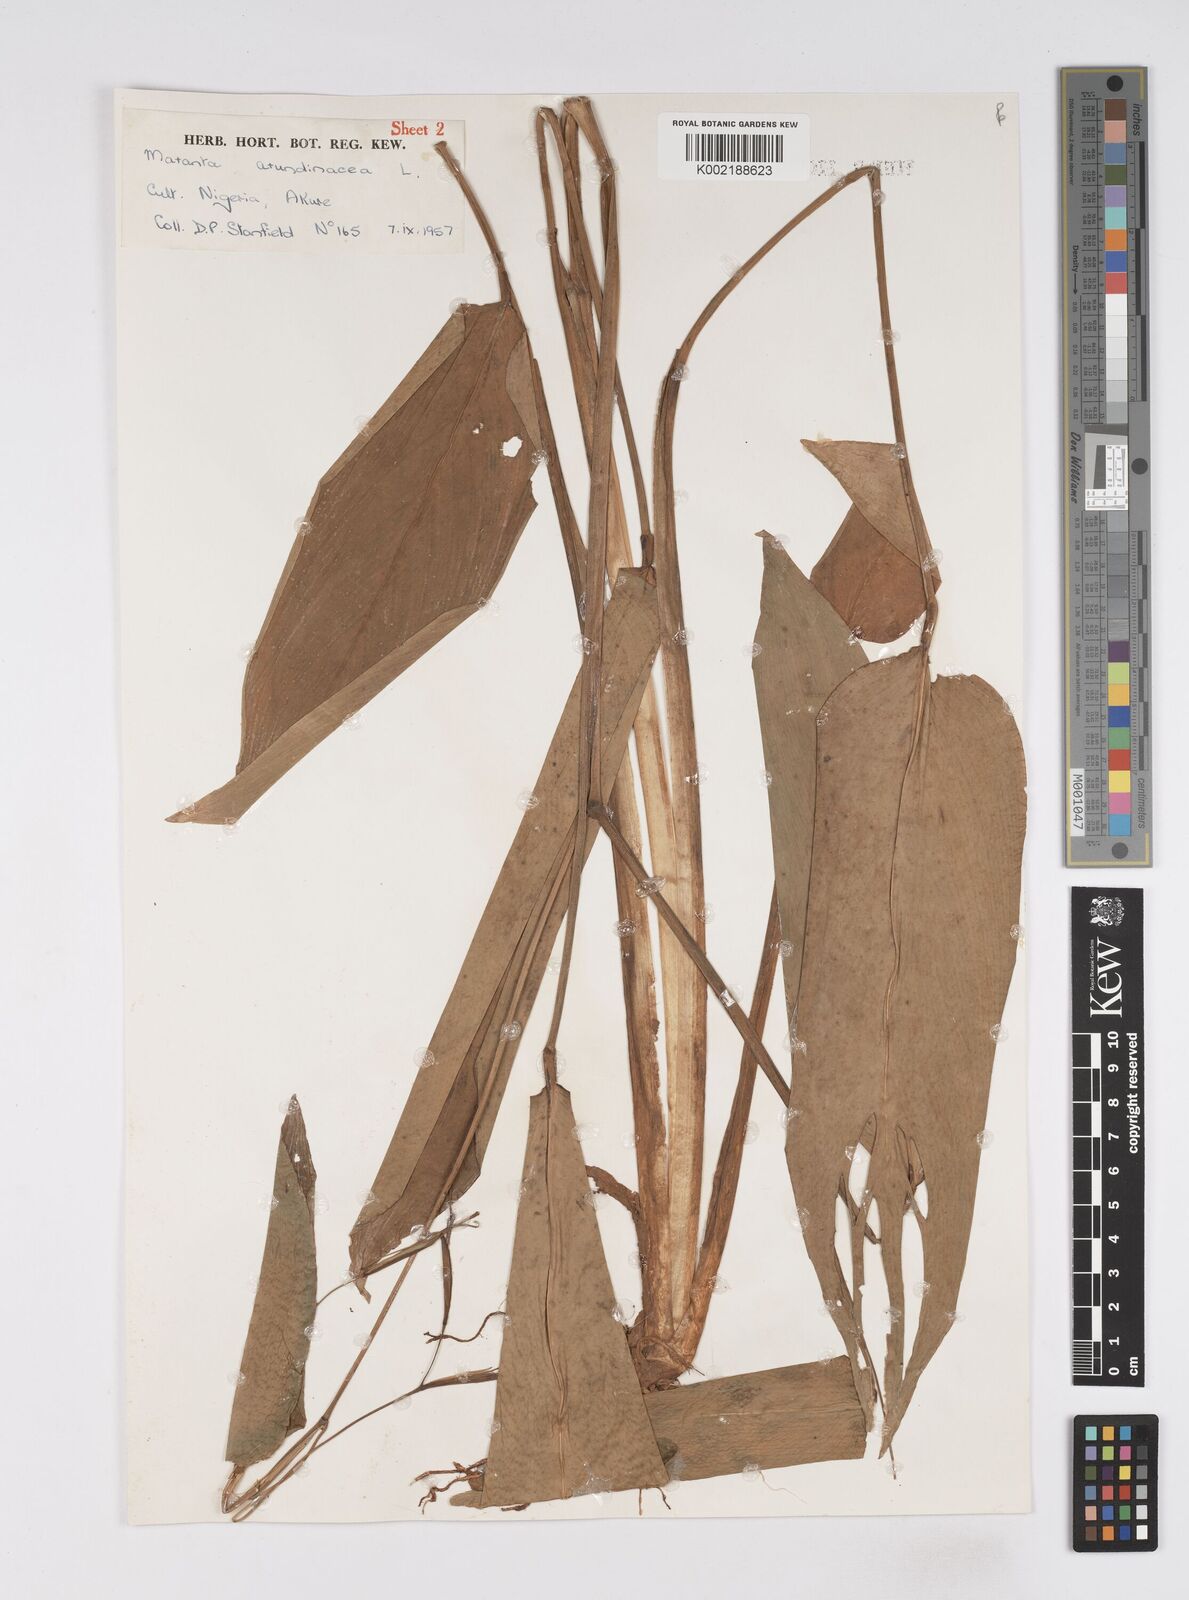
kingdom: Plantae
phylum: Tracheophyta
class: Liliopsida
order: Zingiberales
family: Marantaceae
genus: Maranta
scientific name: Maranta arundinacea
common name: Arrowroot
